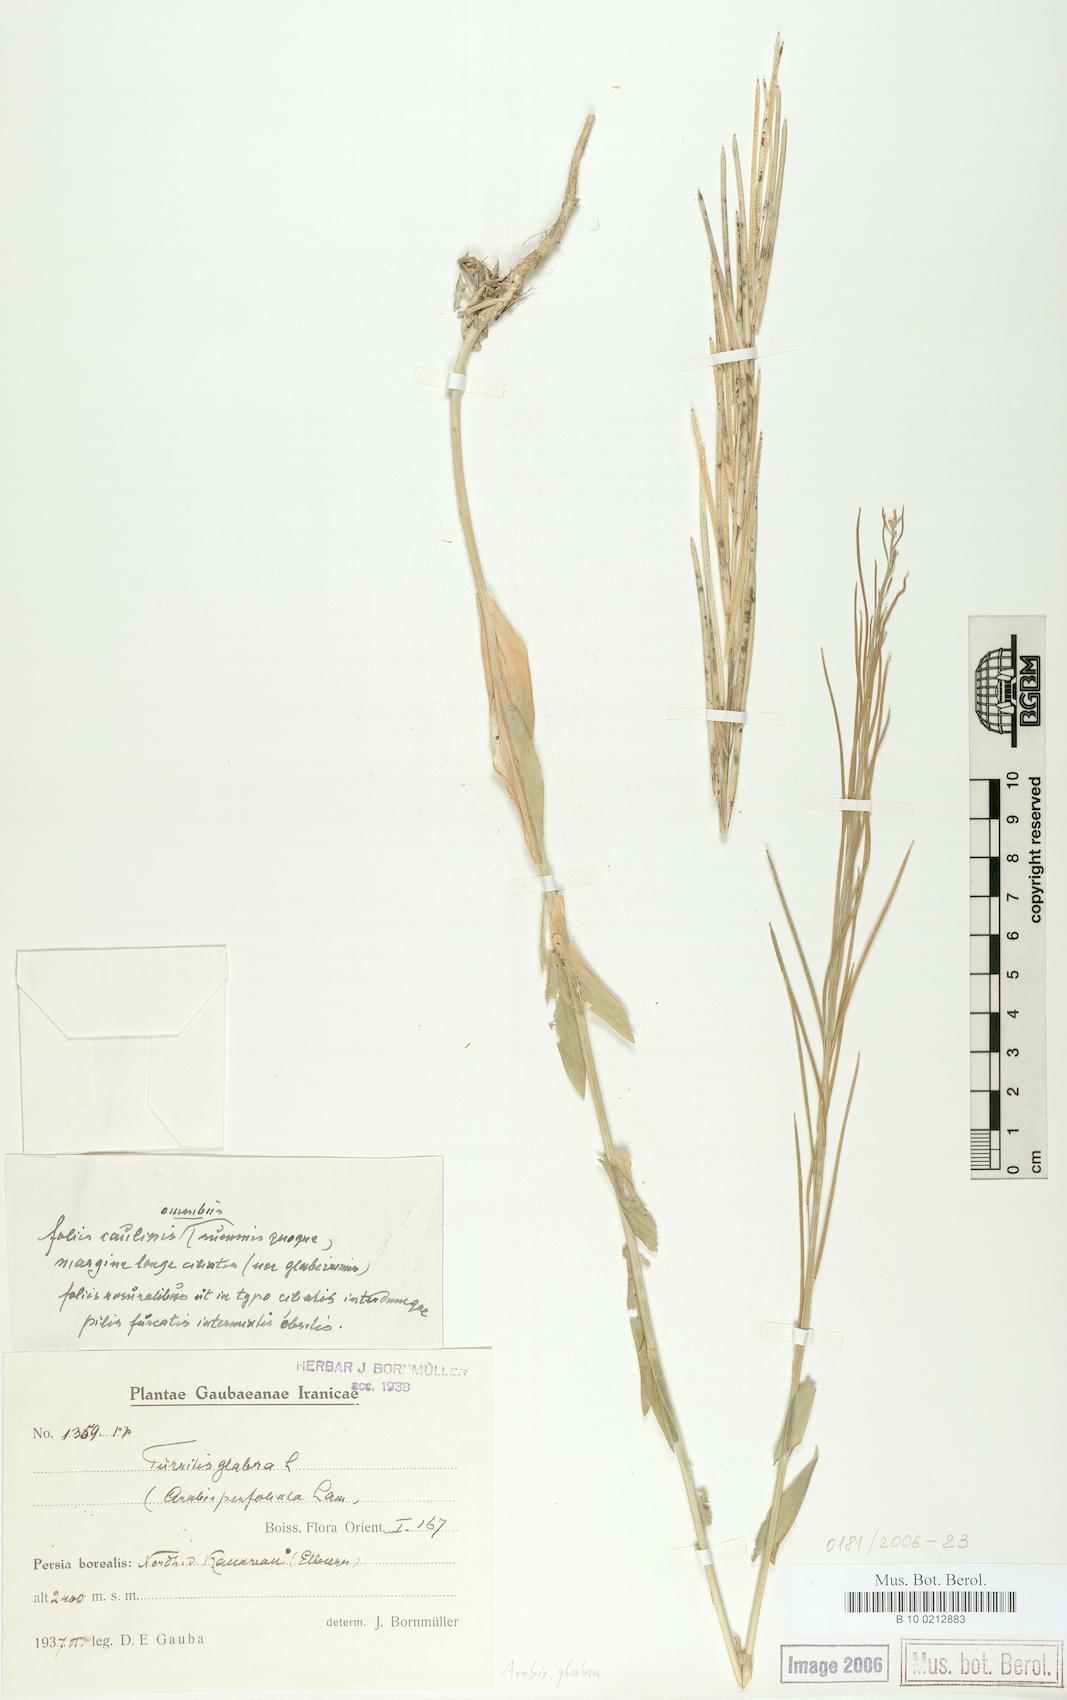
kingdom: Plantae
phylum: Tracheophyta
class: Magnoliopsida
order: Brassicales
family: Brassicaceae
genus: Turritis
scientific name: Turritis glabra
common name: Tower rockcress
